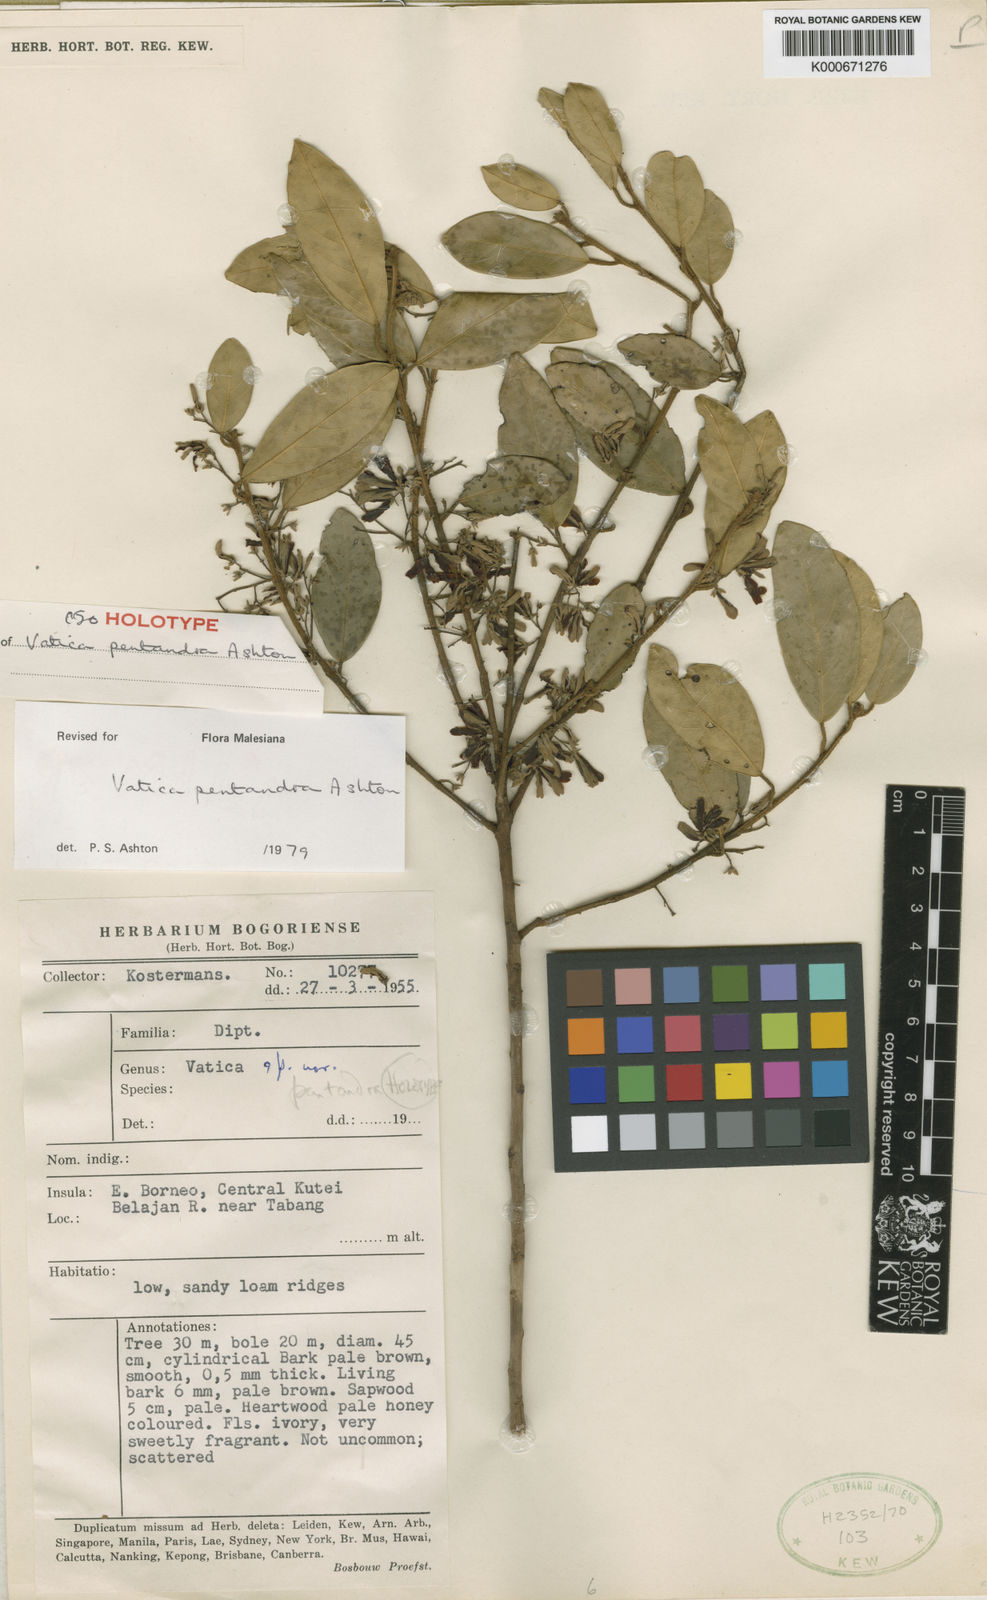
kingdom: Plantae
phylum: Tracheophyta
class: Magnoliopsida
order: Malvales
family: Dipterocarpaceae
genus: Vatica
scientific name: Vatica pentandra
